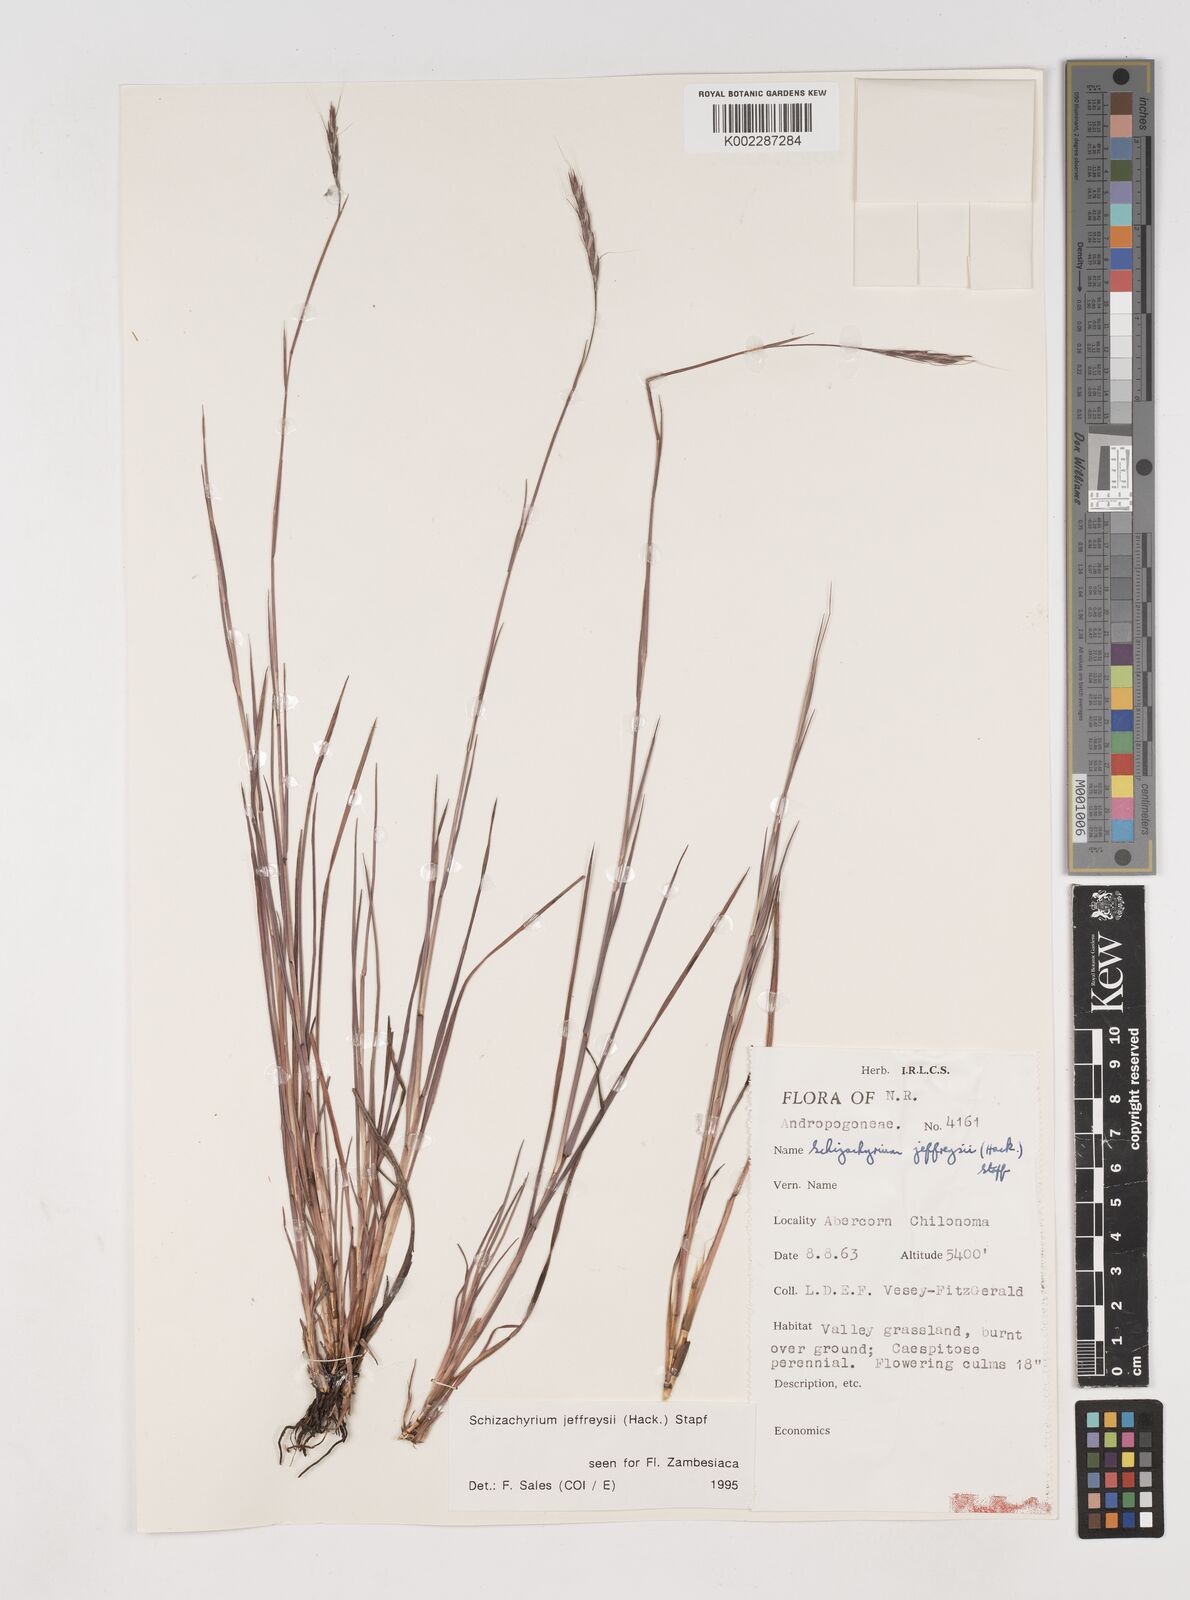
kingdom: Plantae
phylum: Tracheophyta
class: Liliopsida
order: Poales
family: Poaceae
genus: Schizachyrium
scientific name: Schizachyrium jeffreysii
